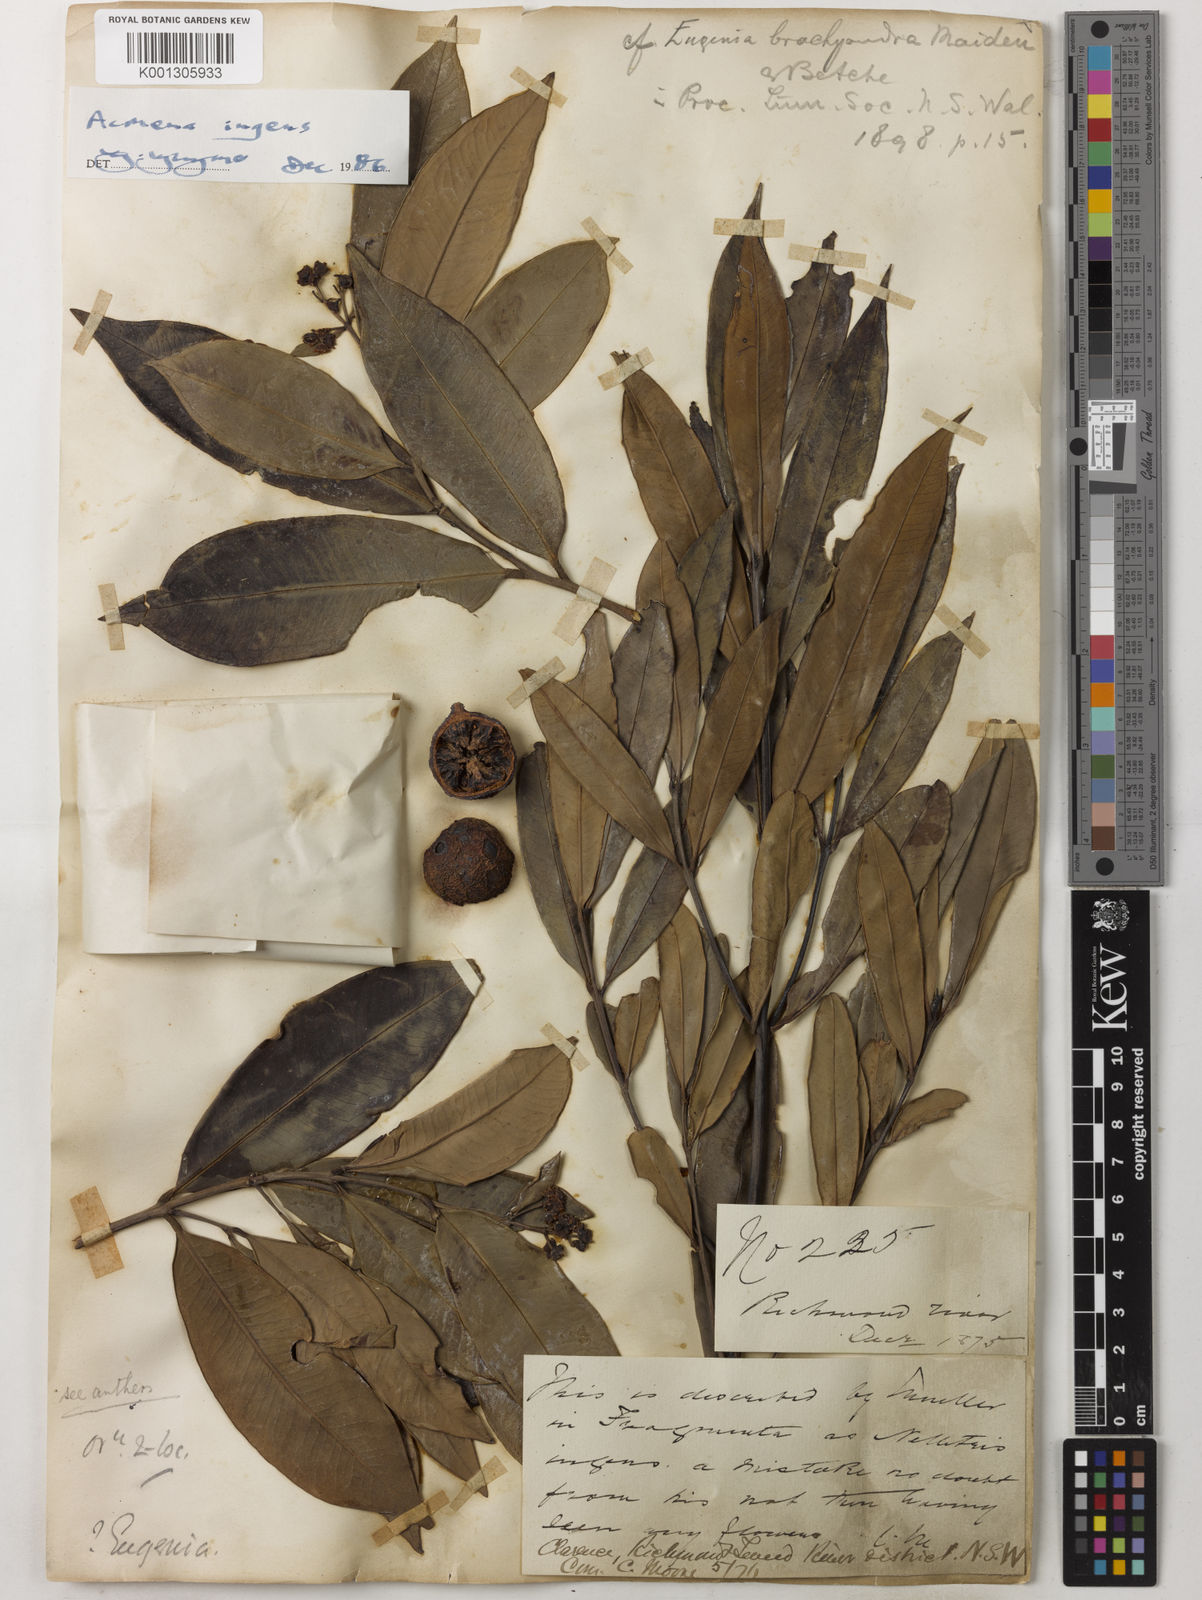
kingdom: Plantae
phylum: Tracheophyta
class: Magnoliopsida
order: Myrtales
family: Myrtaceae
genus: Syzygium
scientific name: Syzygium ingens
